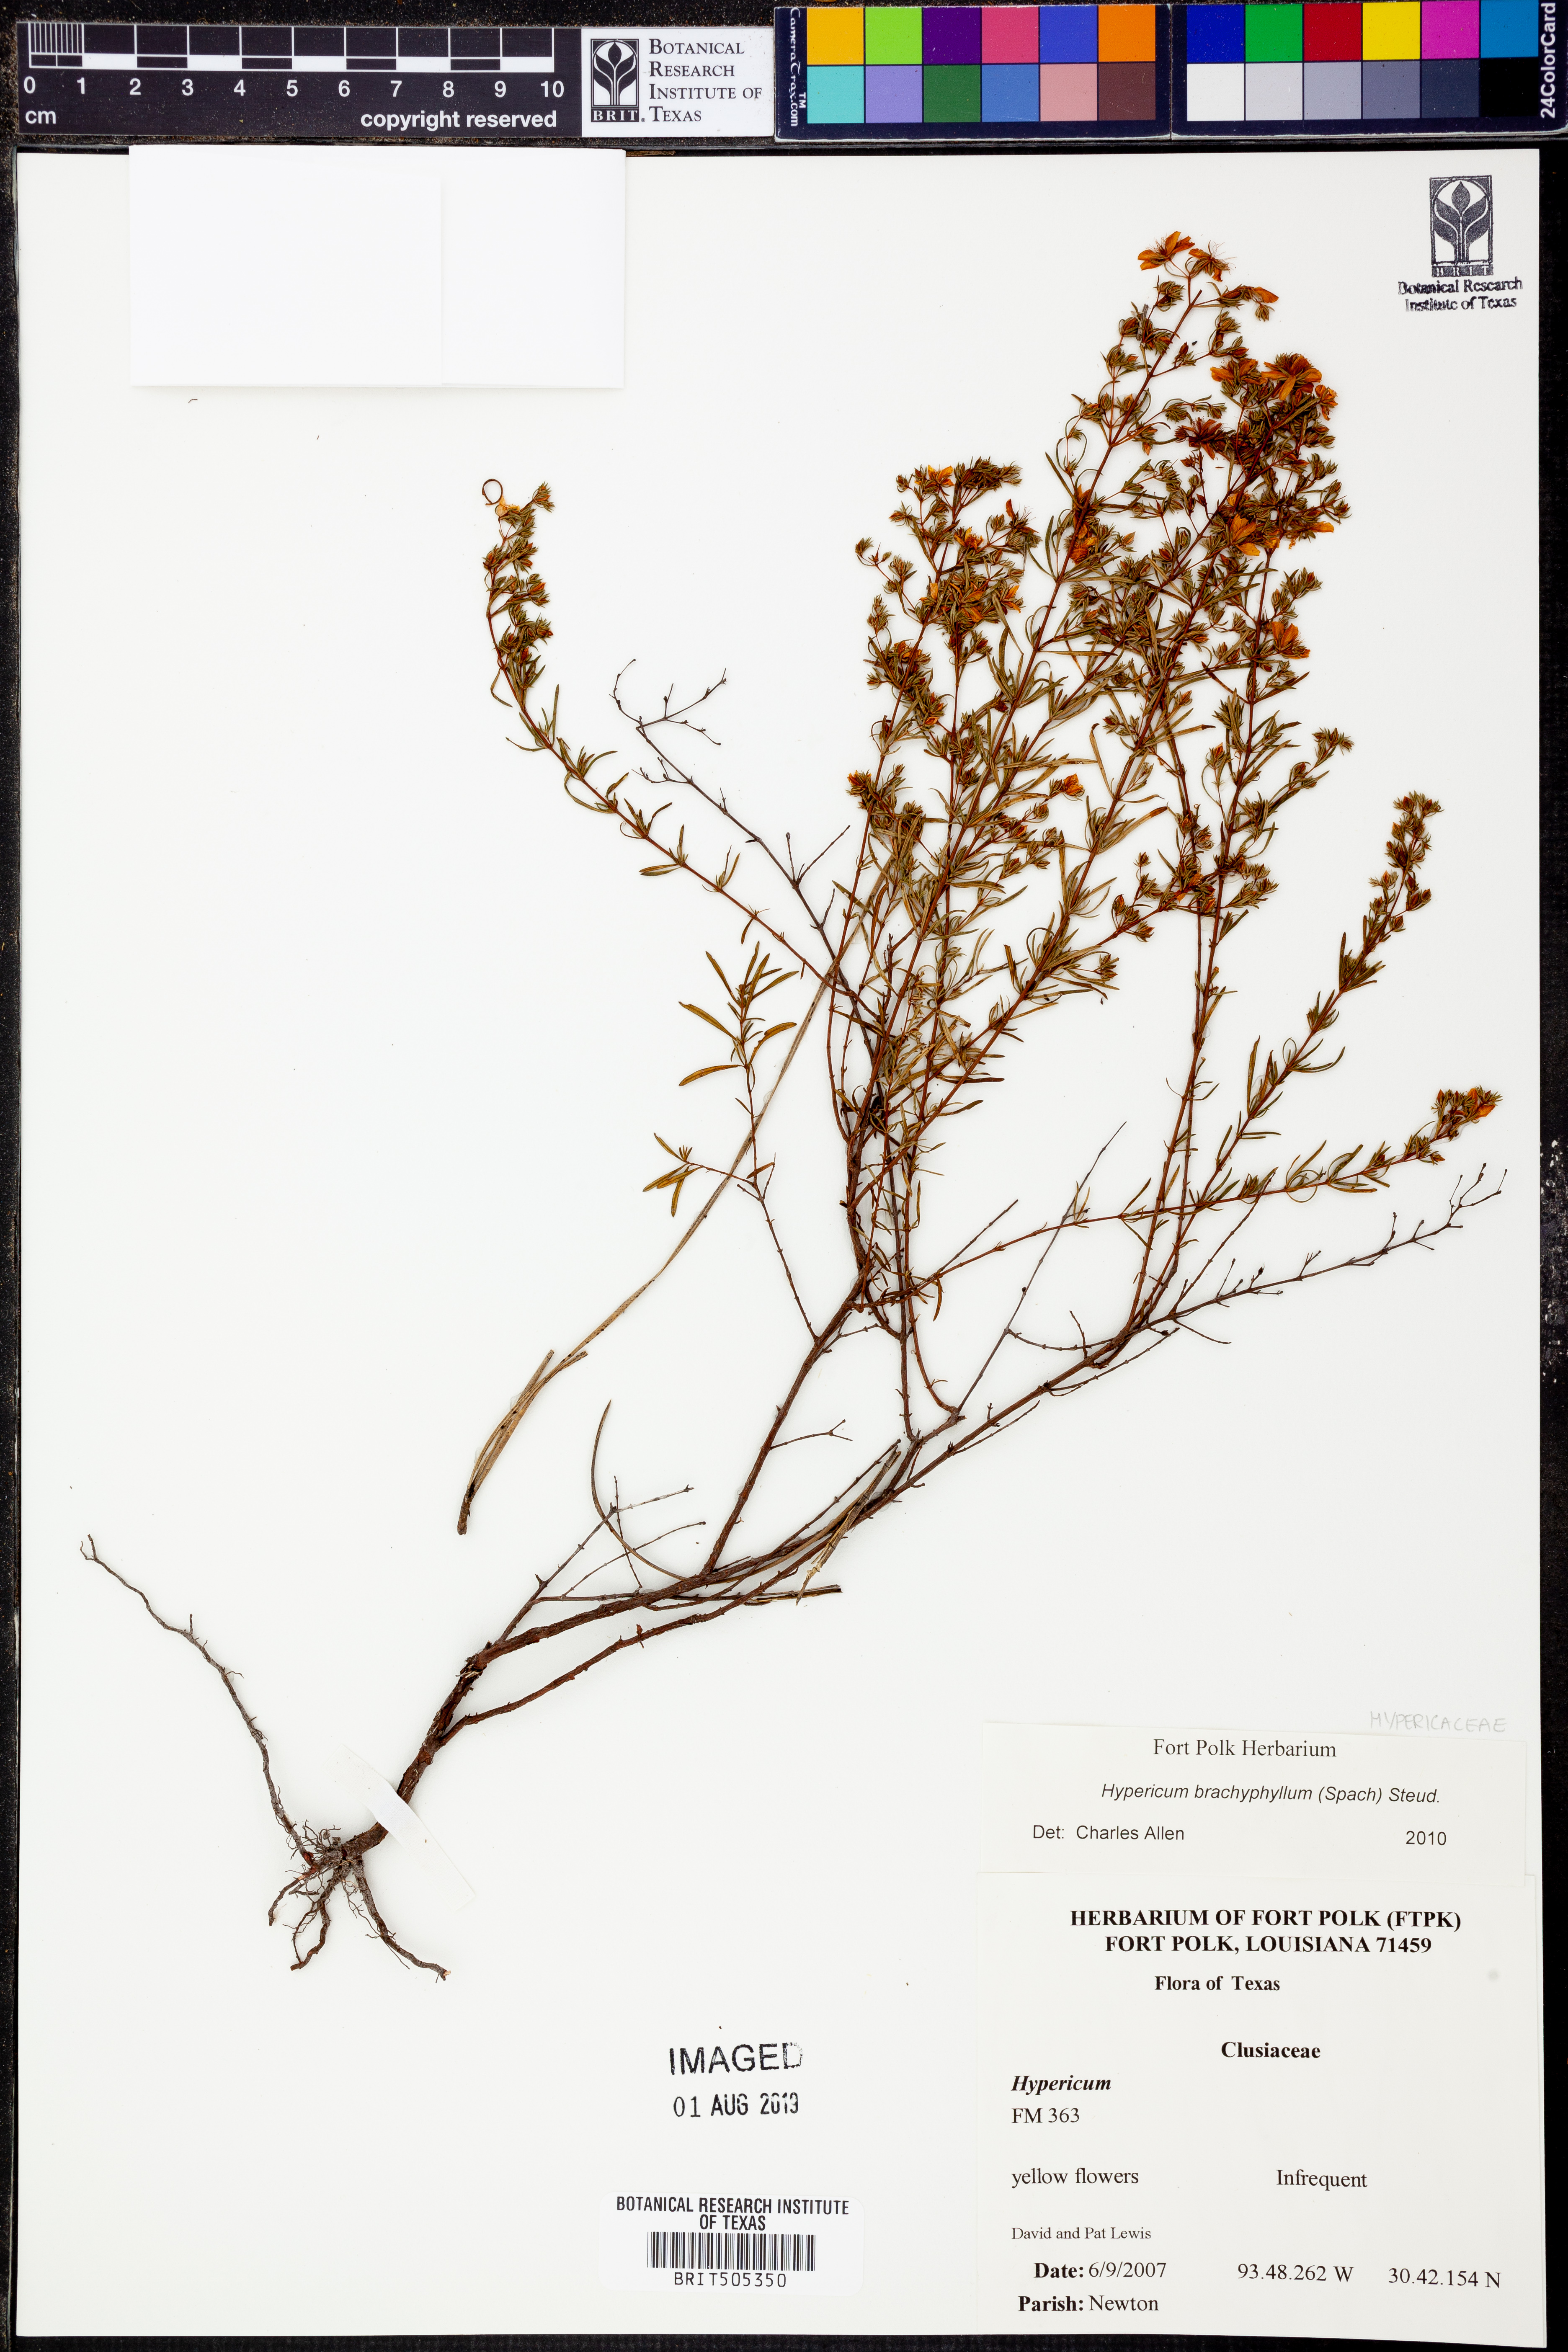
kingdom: Plantae
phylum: Tracheophyta
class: Magnoliopsida
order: Malpighiales
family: Hypericaceae
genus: Hypericum
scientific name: Hypericum brachyphyllum
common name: Coastal plain st. john's-wort
